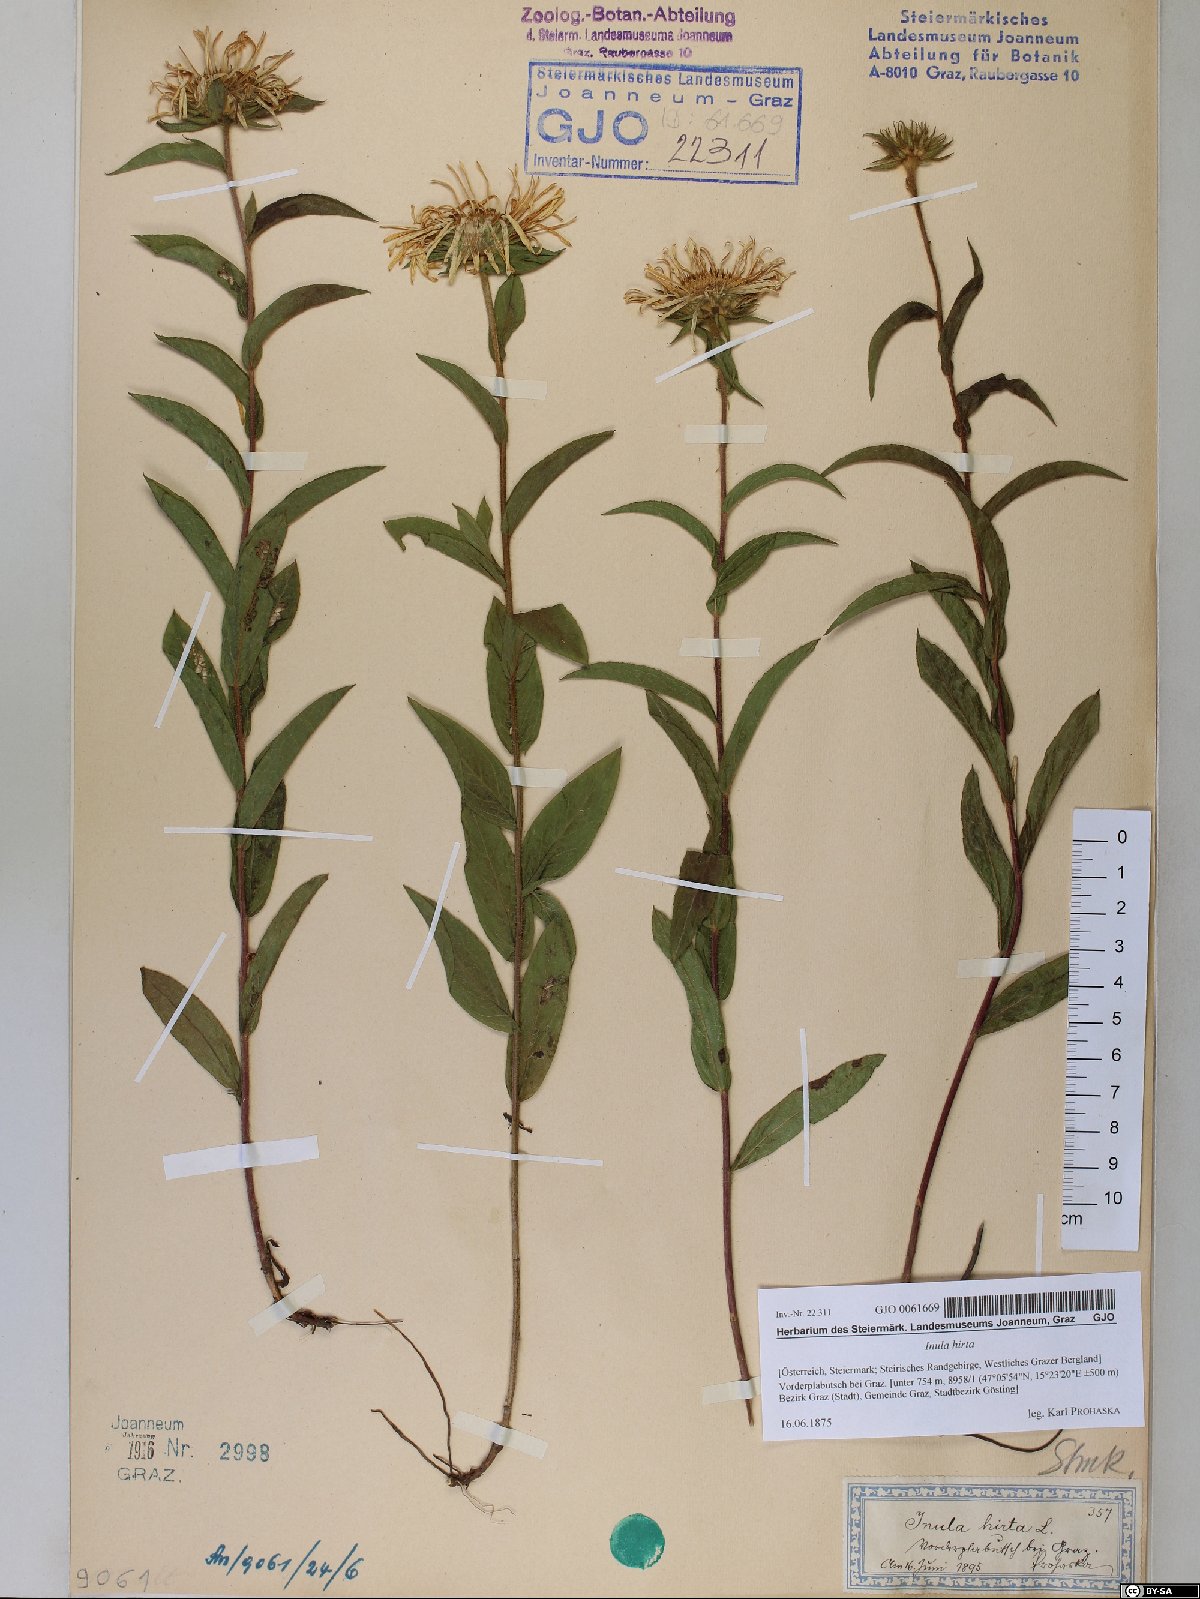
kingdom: Plantae
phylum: Tracheophyta
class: Magnoliopsida
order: Asterales
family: Asteraceae
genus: Pentanema
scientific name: Pentanema hirtum
